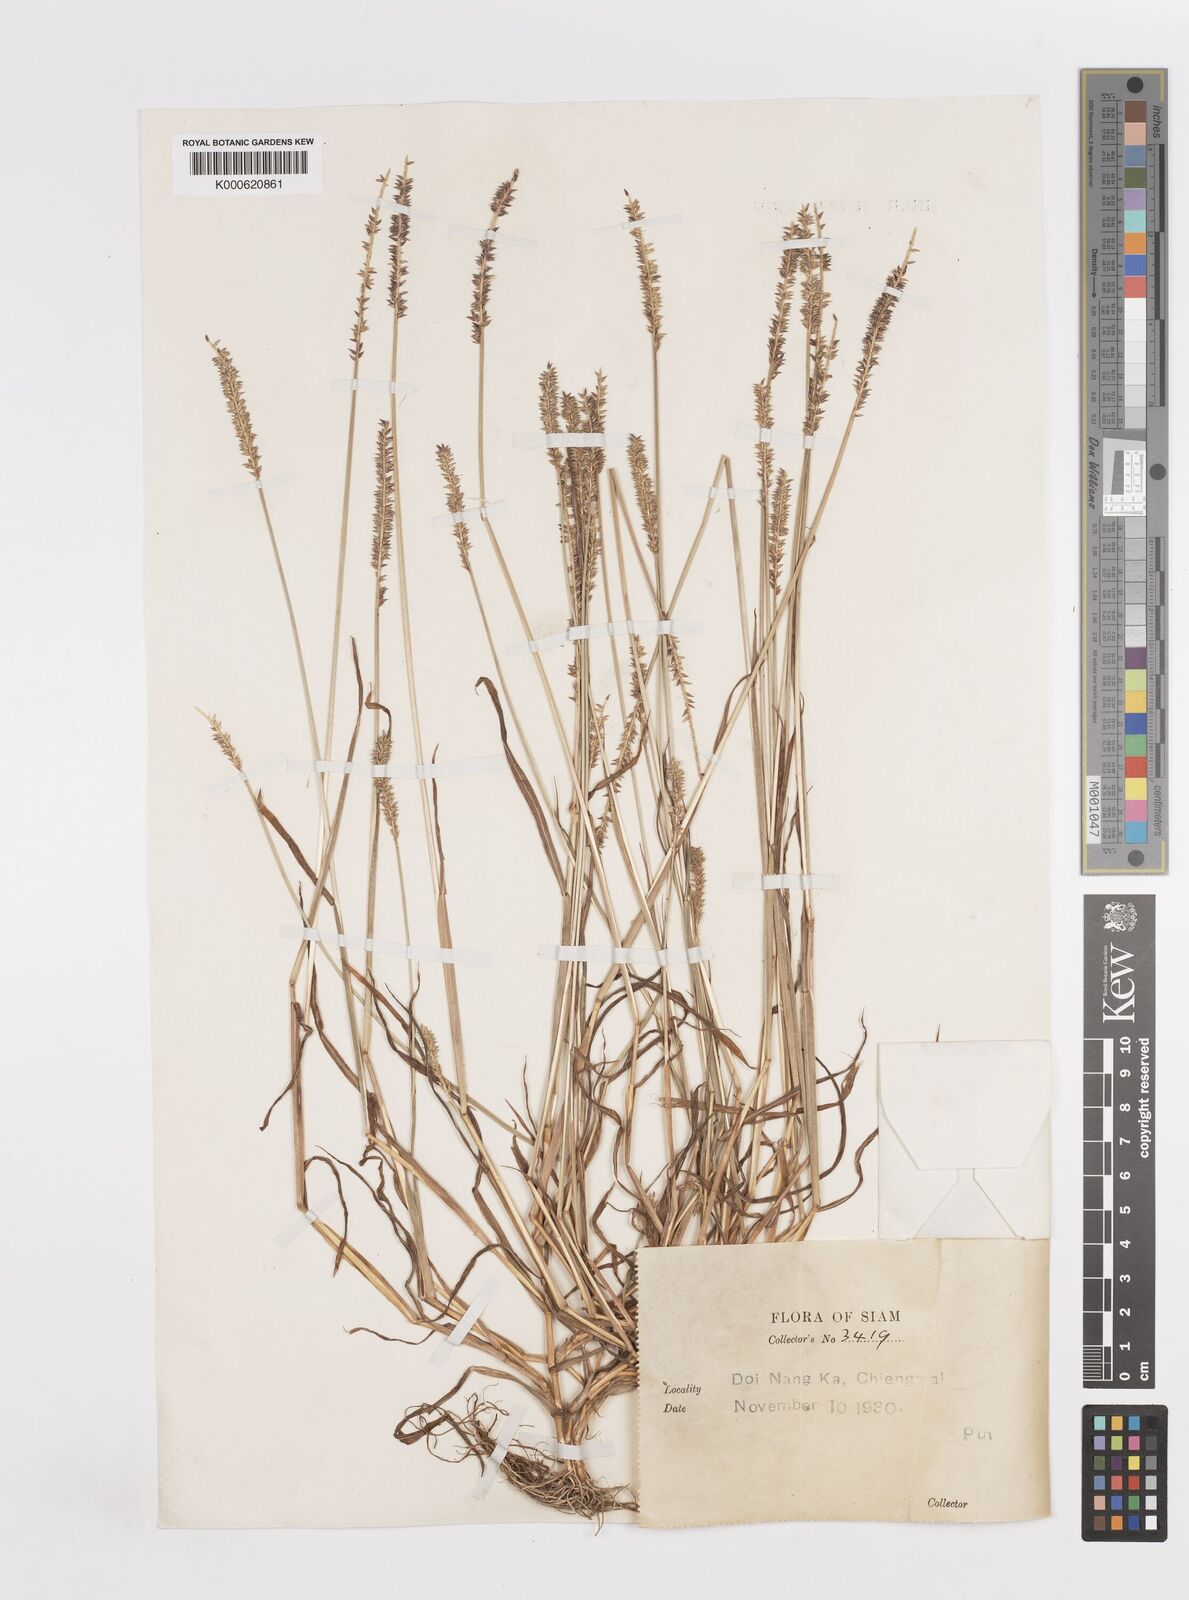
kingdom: Plantae
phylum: Tracheophyta
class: Liliopsida
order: Poales
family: Poaceae
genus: Sacciolepis
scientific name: Sacciolepis indica
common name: Glenwoodgrass
